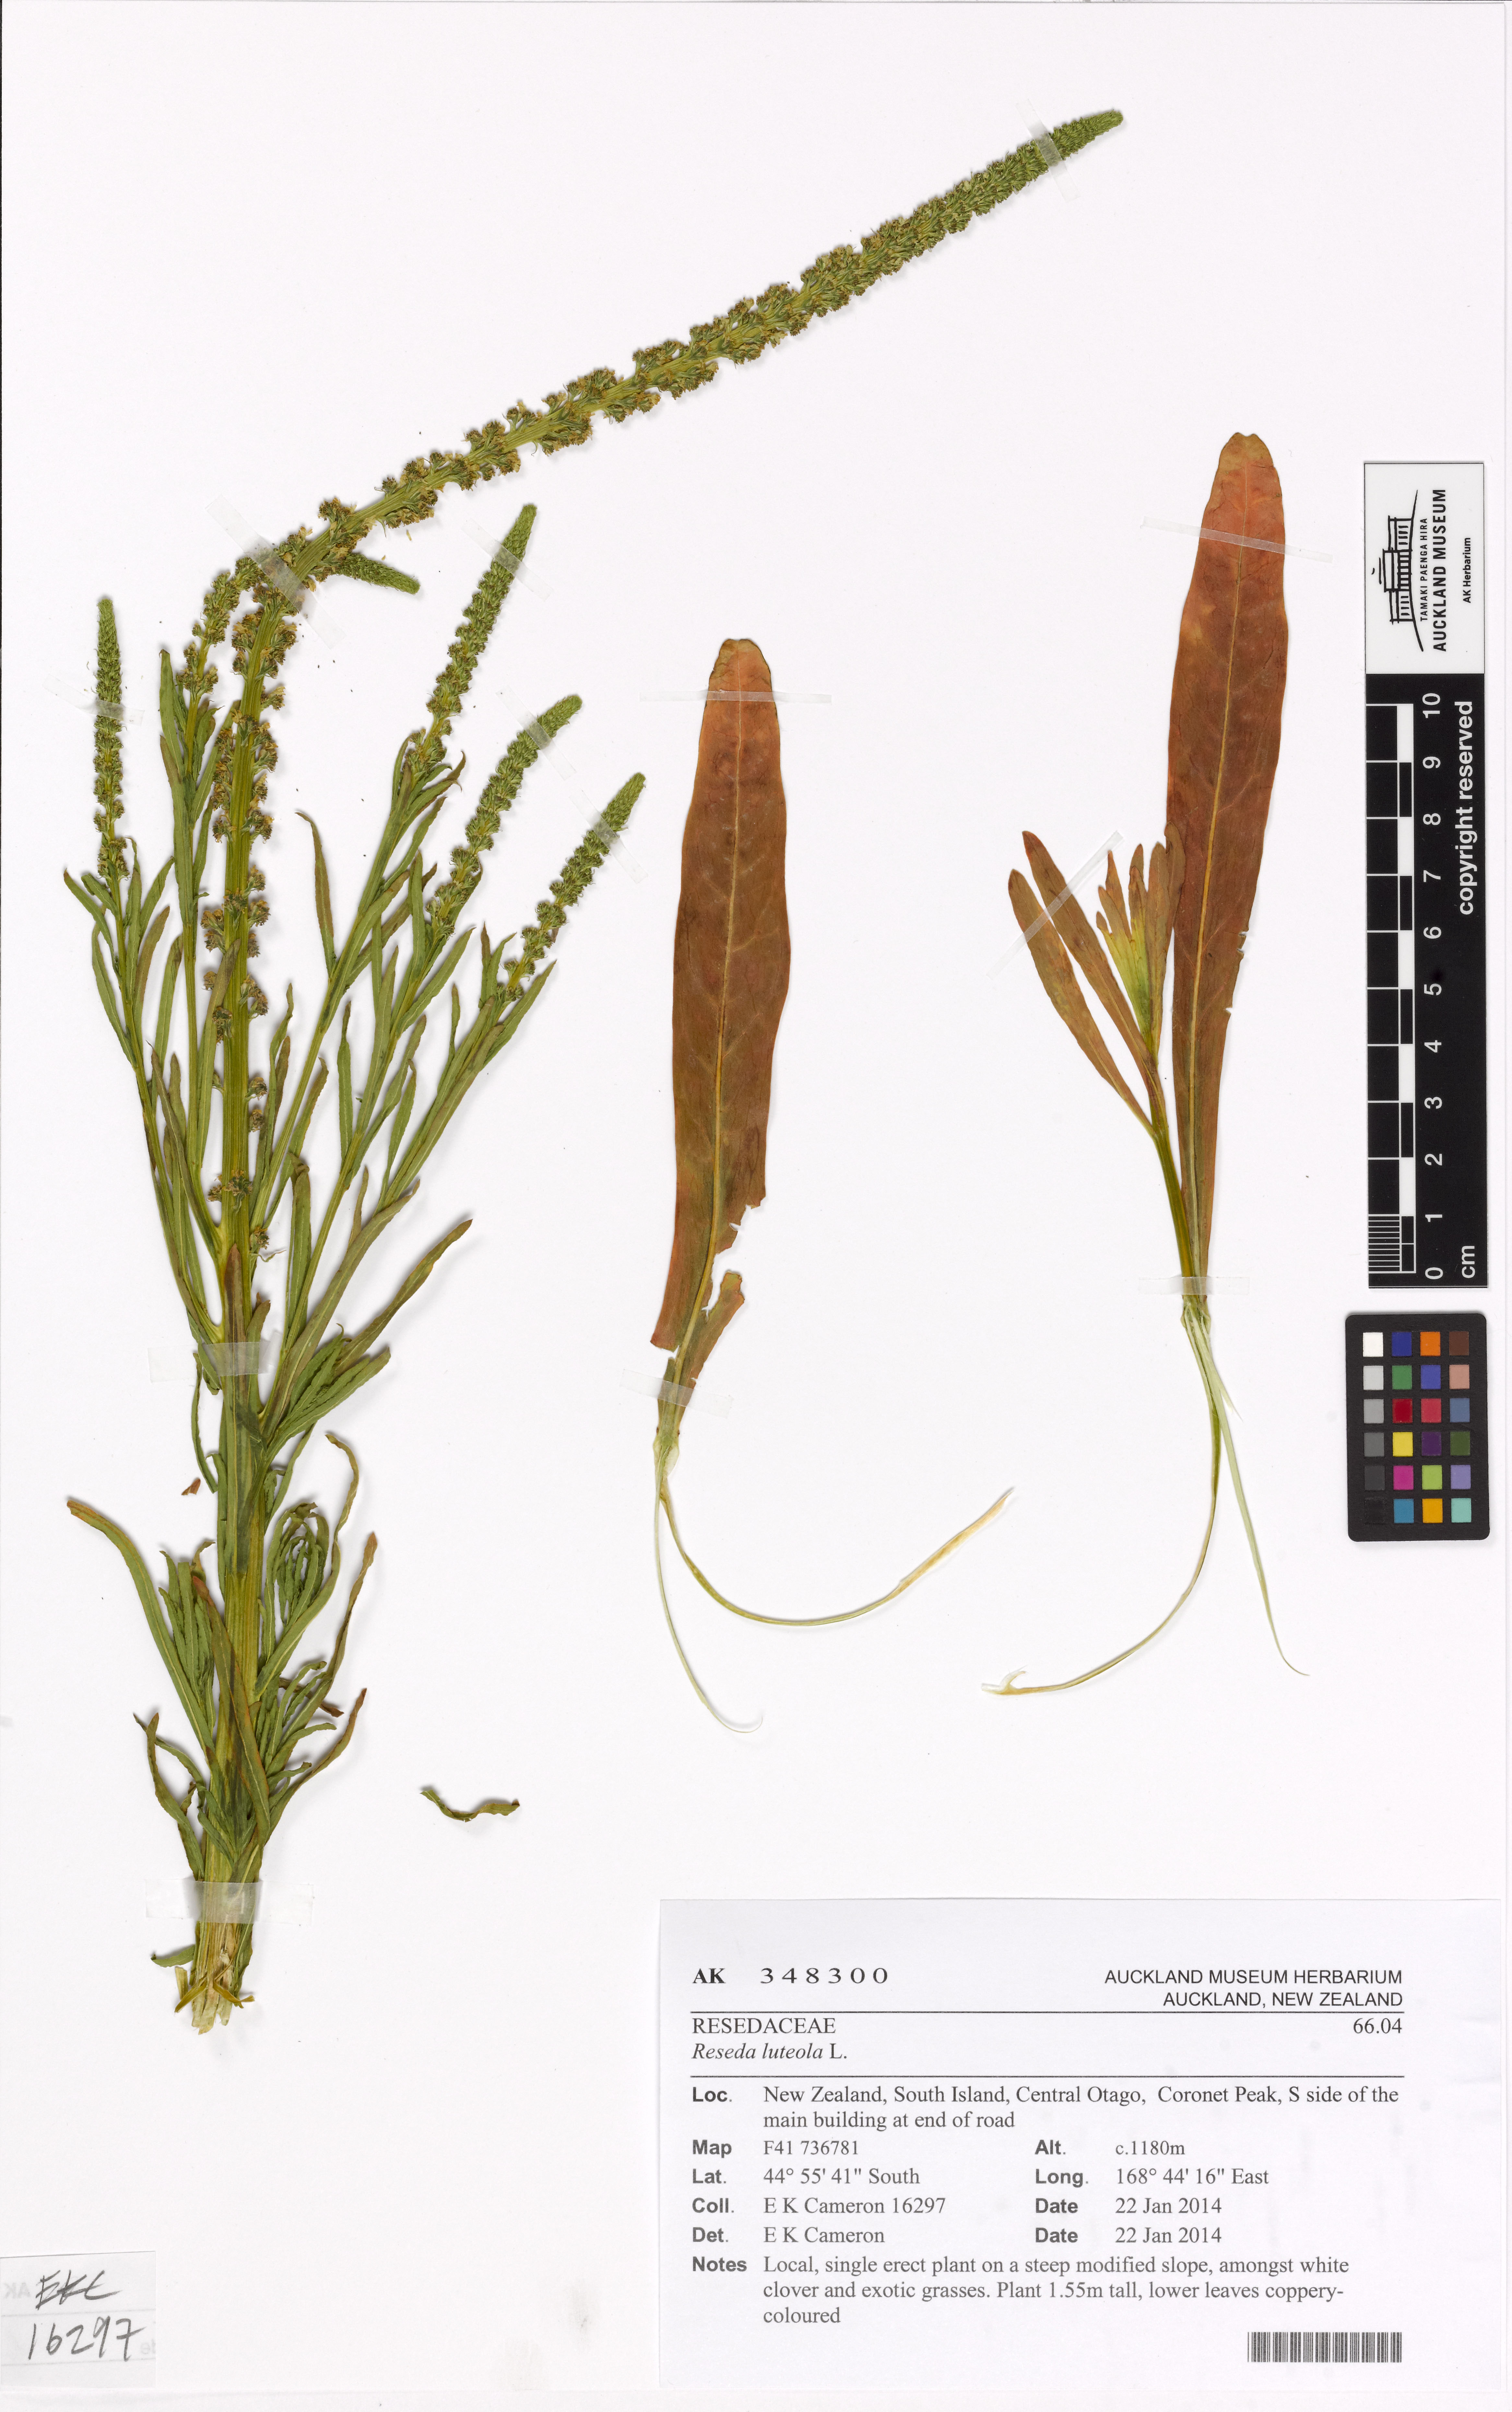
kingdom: Plantae
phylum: Tracheophyta
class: Magnoliopsida
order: Brassicales
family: Resedaceae
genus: Reseda
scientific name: Reseda luteola
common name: Weld
